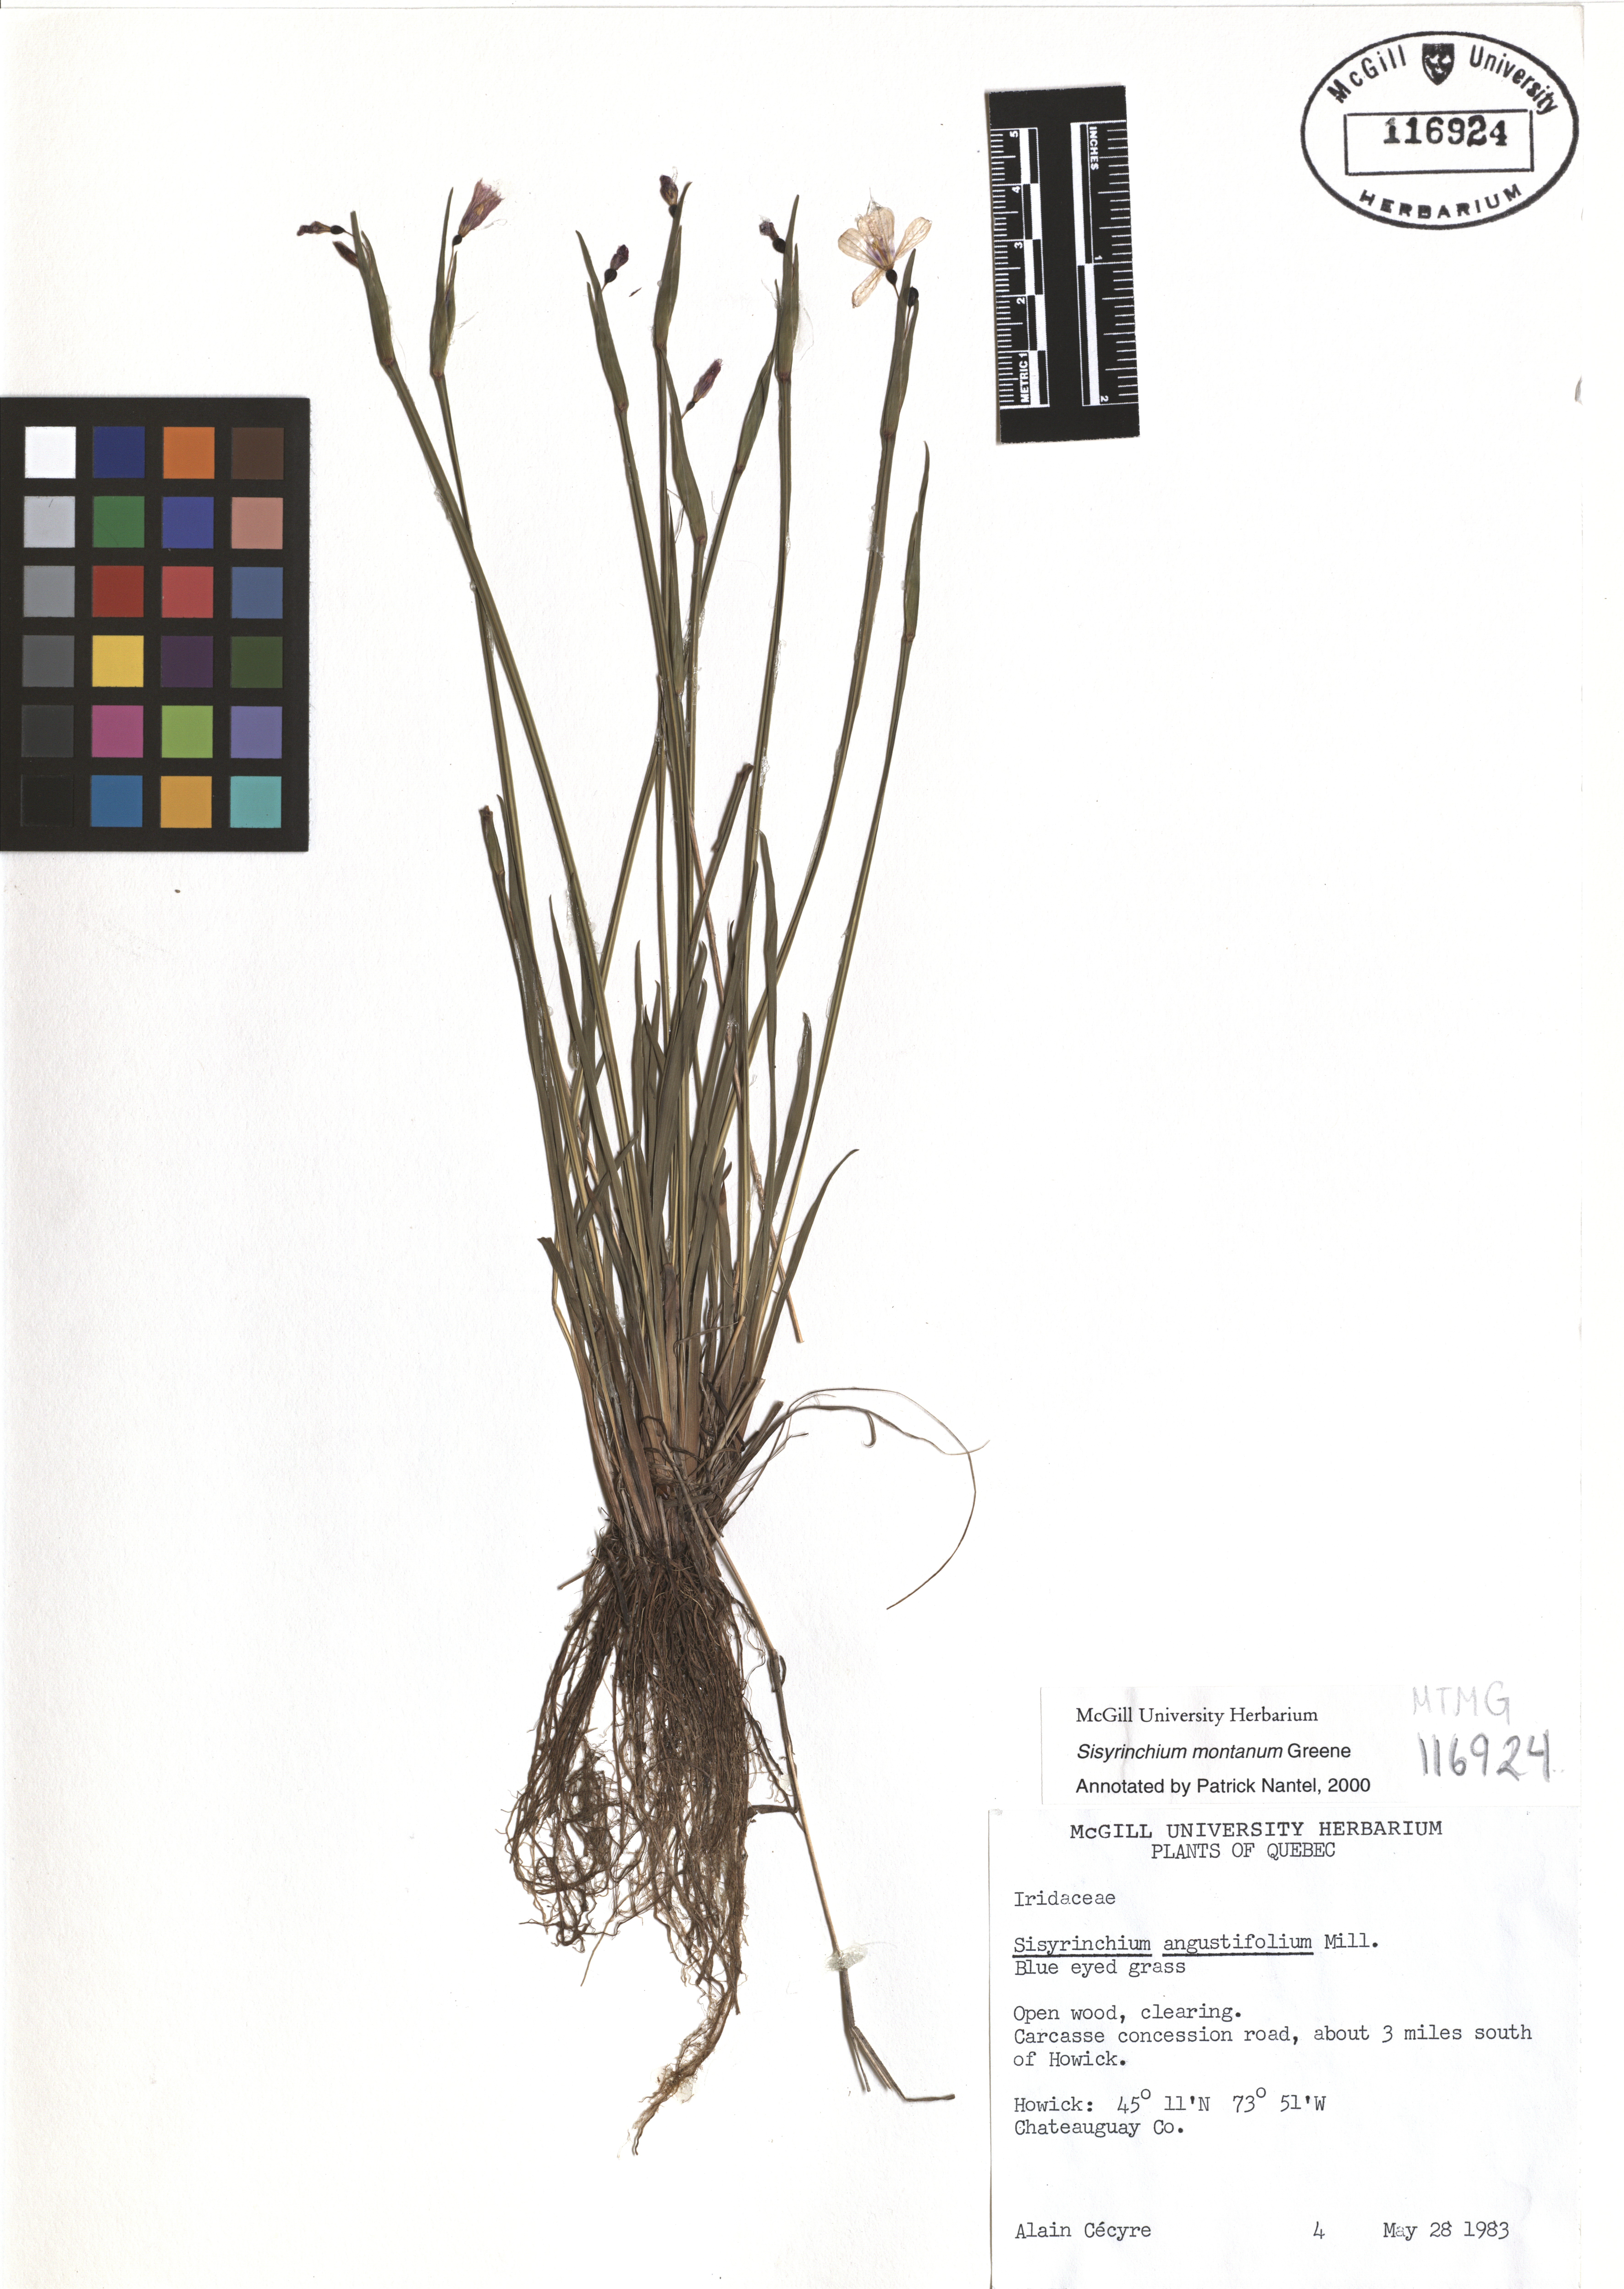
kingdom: Plantae
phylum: Tracheophyta
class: Liliopsida
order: Asparagales
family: Iridaceae
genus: Sisyrinchium
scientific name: Sisyrinchium montanum
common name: American blue-eyed-grass
